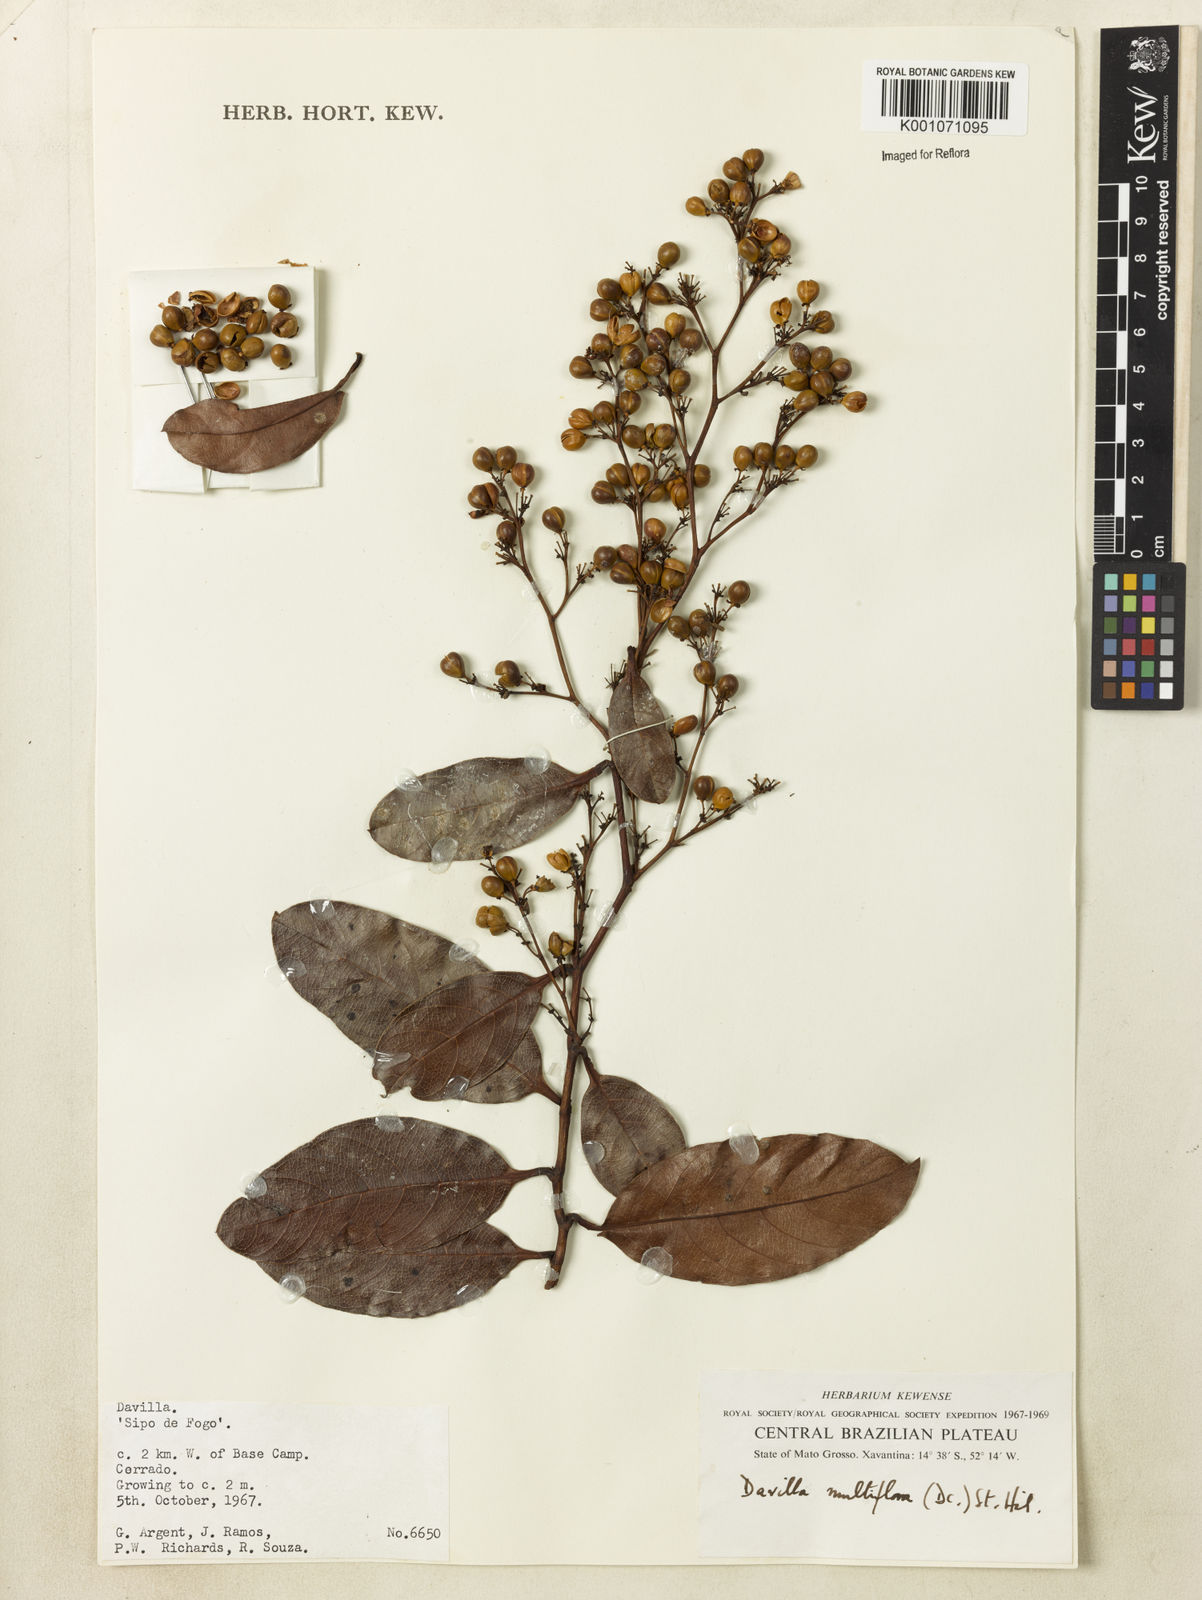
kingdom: Plantae
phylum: Tracheophyta
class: Magnoliopsida
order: Dilleniales
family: Dilleniaceae
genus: Davilla
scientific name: Davilla nitida
